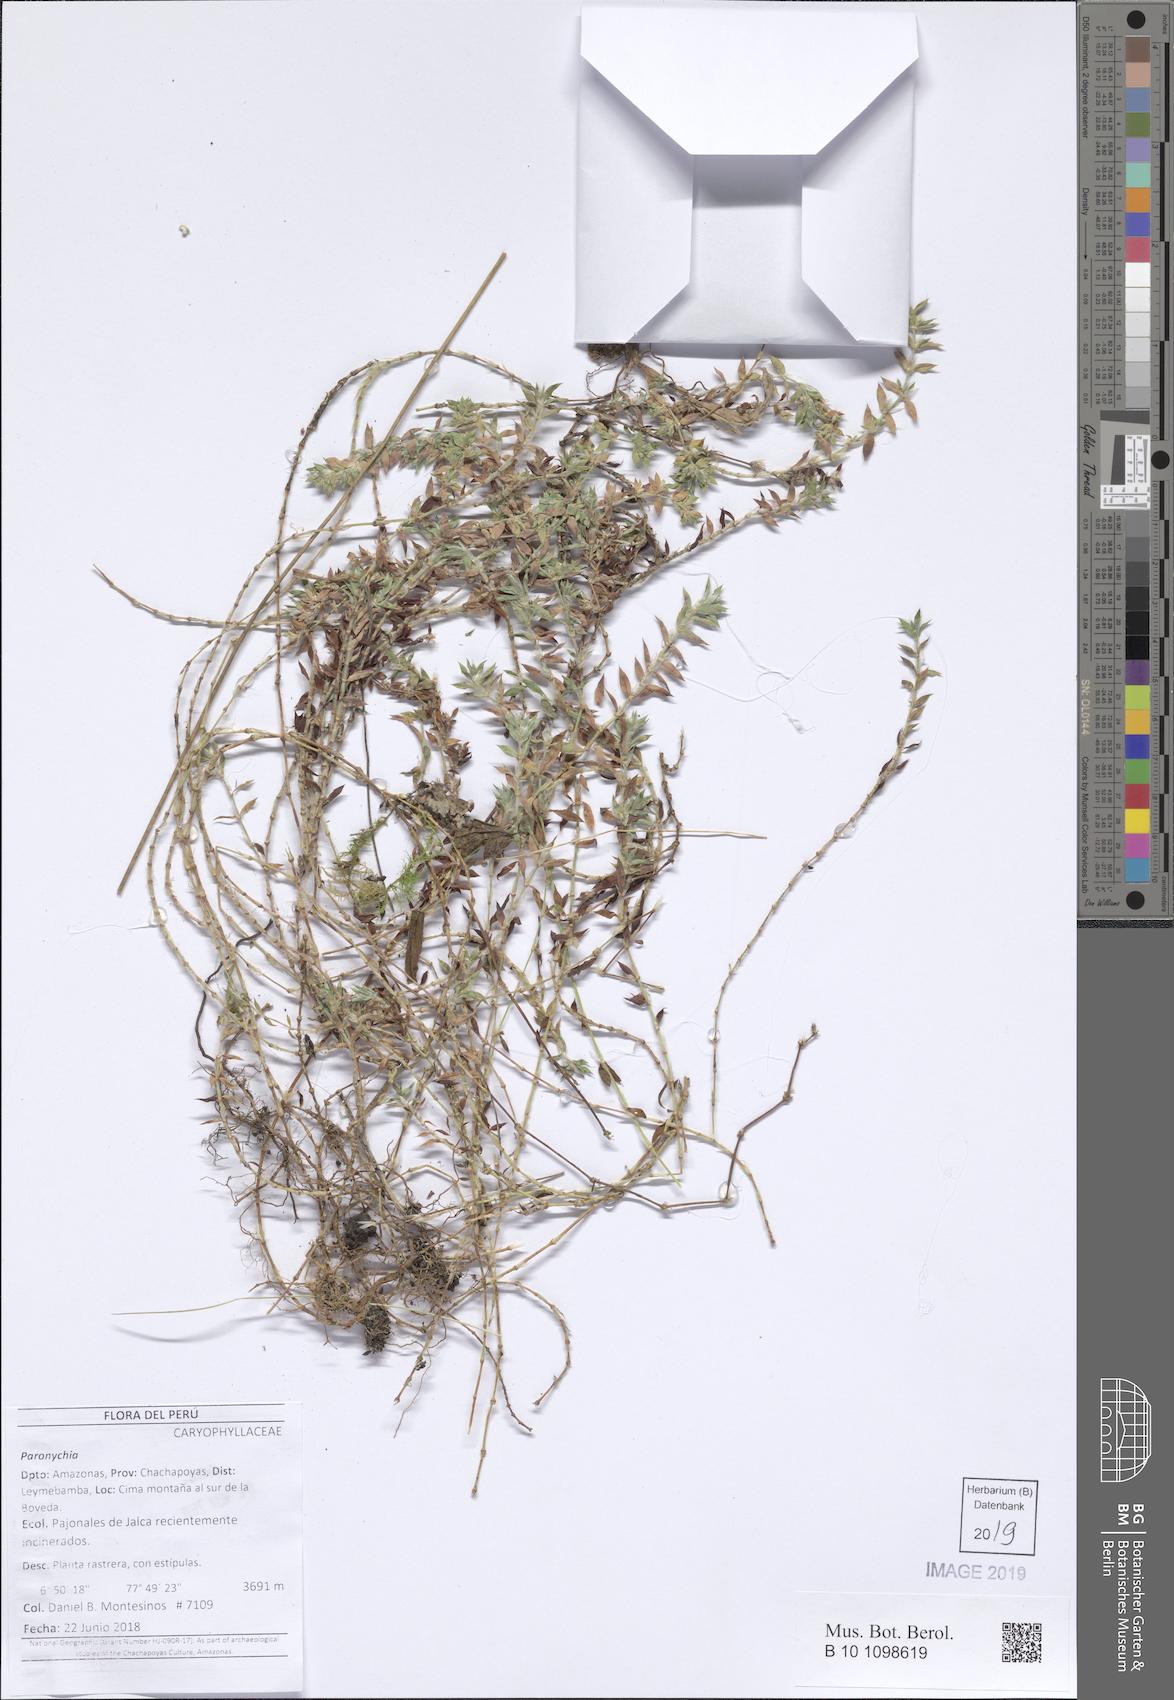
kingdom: Plantae
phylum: Tracheophyta
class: Magnoliopsida
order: Caryophyllales
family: Caryophyllaceae
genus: Paronychia
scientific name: Paronychia
